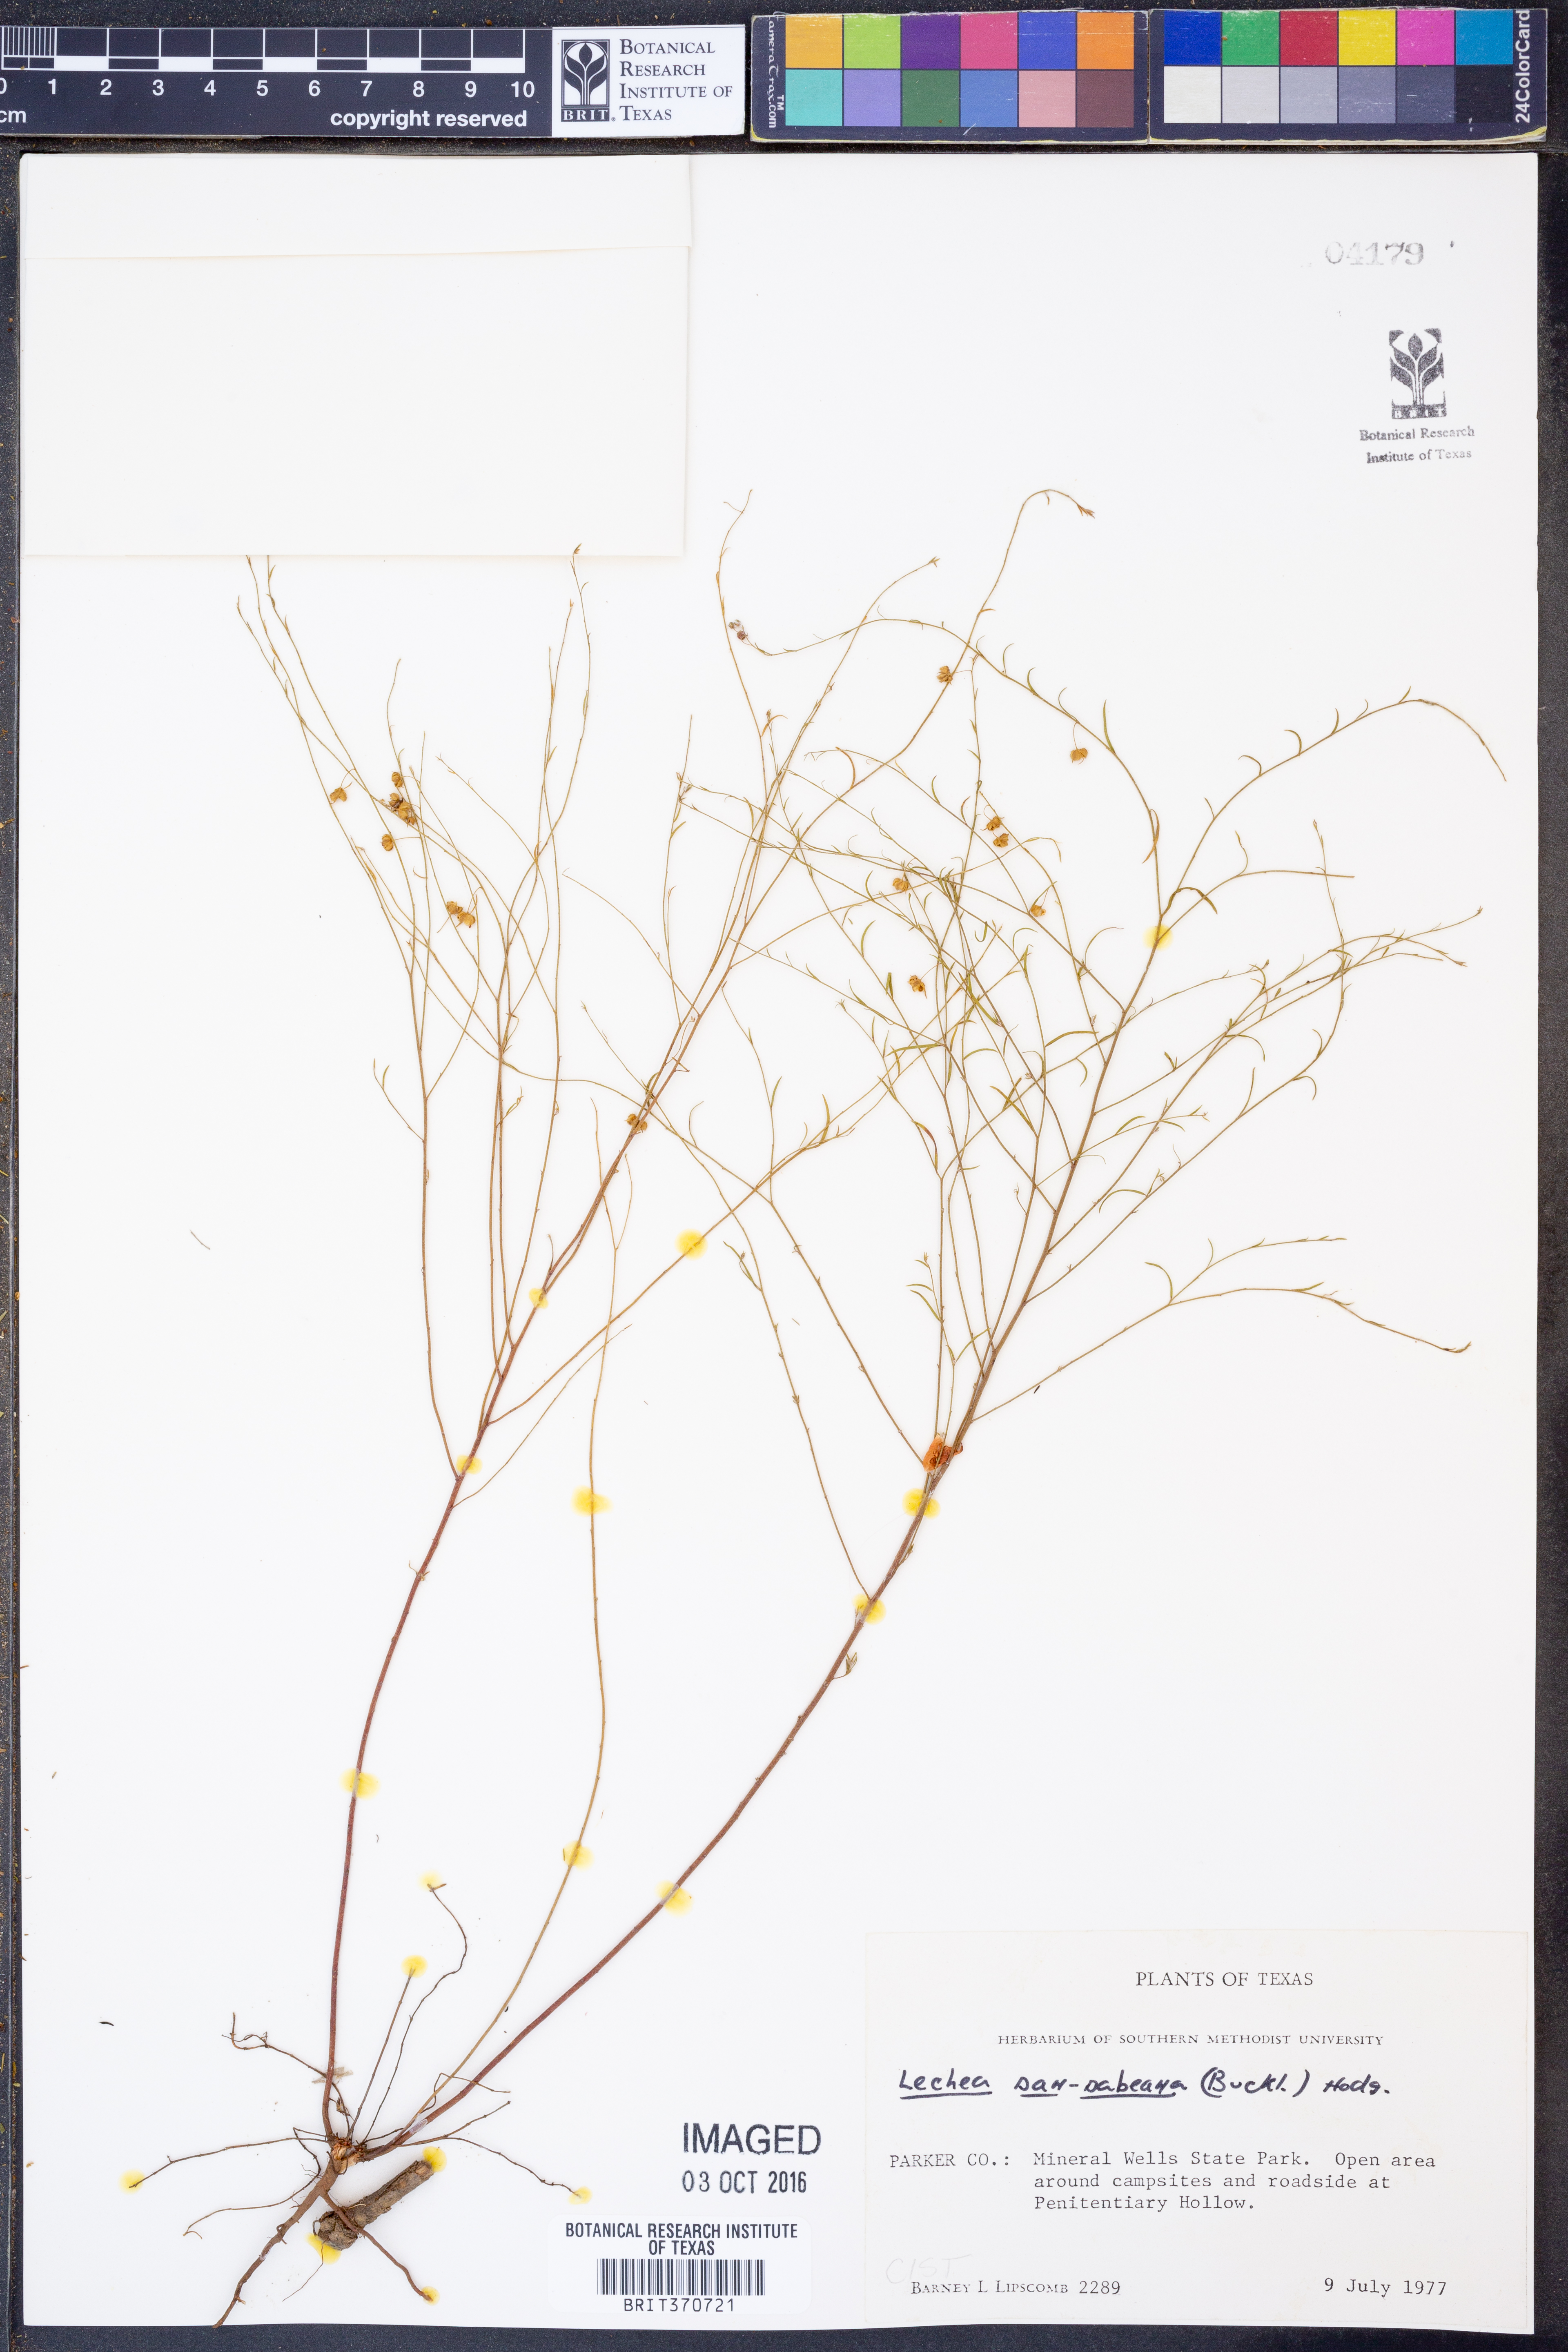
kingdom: Plantae
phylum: Tracheophyta
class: Magnoliopsida
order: Malvales
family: Cistaceae
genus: Lechea
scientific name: Lechea san-sabeana
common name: San saba pinweed
